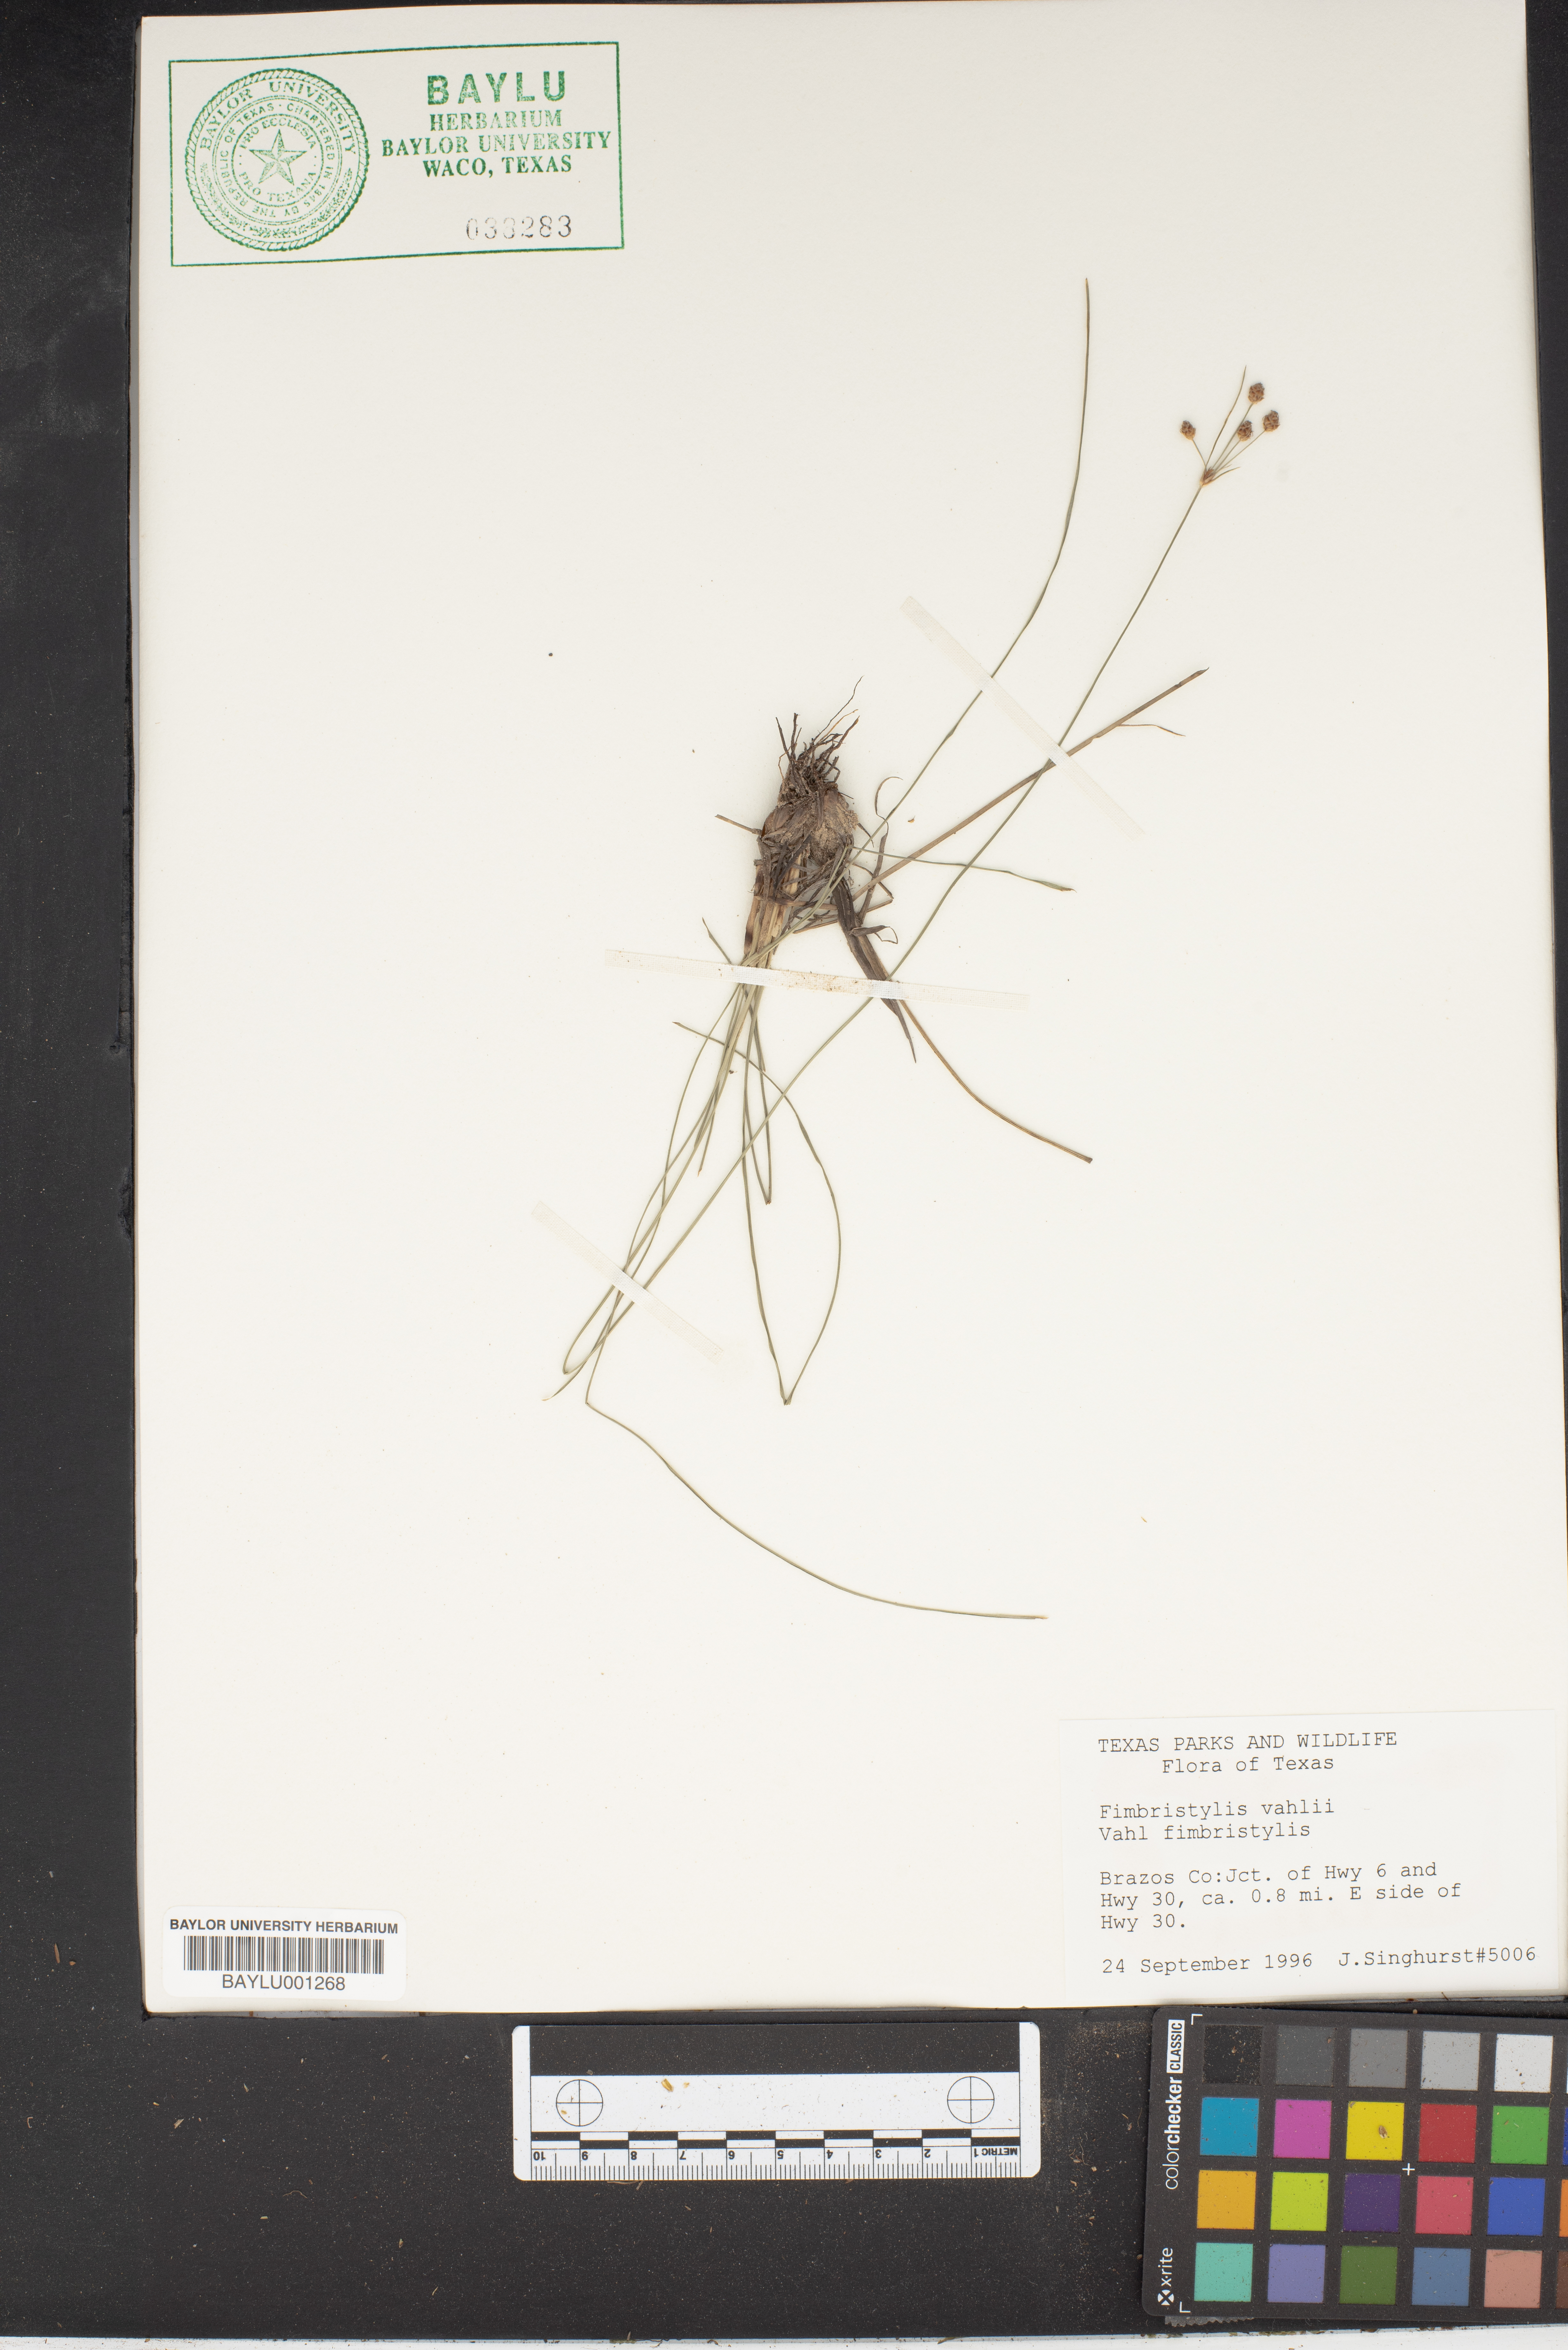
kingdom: Plantae
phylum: Tracheophyta
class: Liliopsida
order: Poales
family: Cyperaceae
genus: Fimbristylis
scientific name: Fimbristylis vahlii
